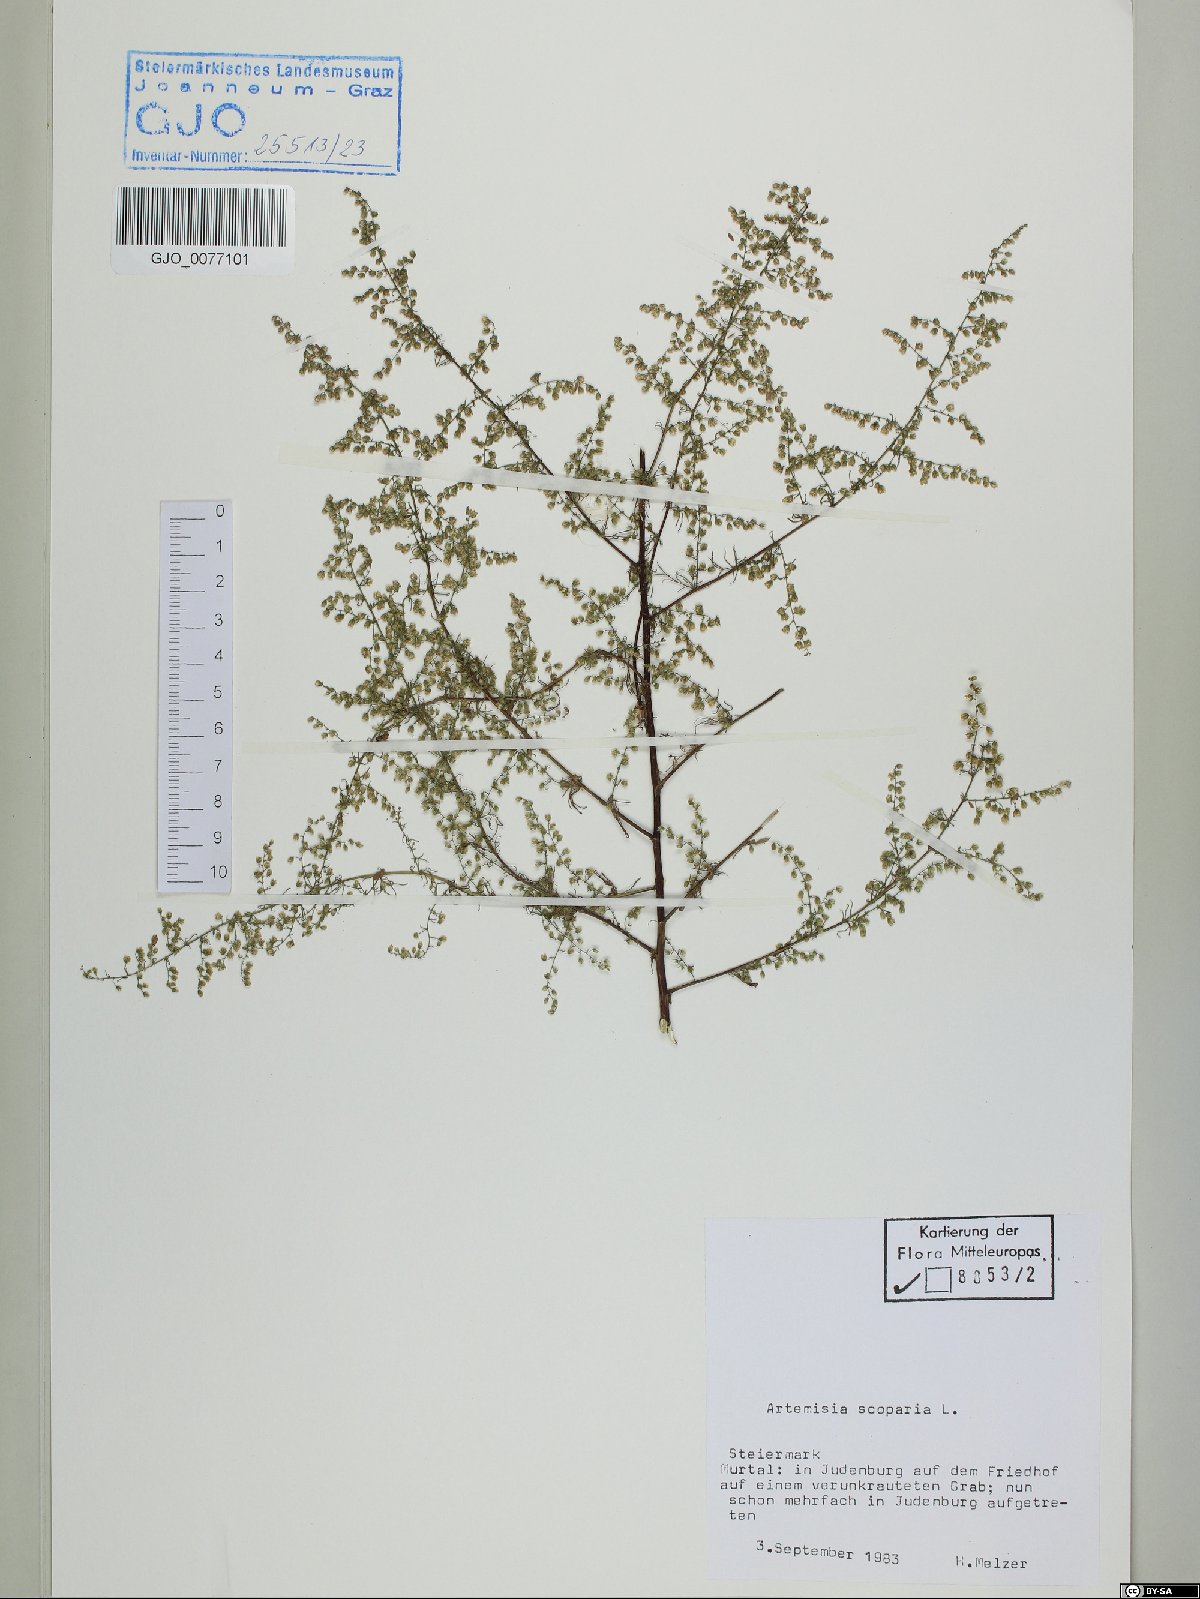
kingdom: Plantae
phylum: Tracheophyta
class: Magnoliopsida
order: Asterales
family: Asteraceae
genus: Artemisia
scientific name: Artemisia scoparia
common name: Redstem wormwood
